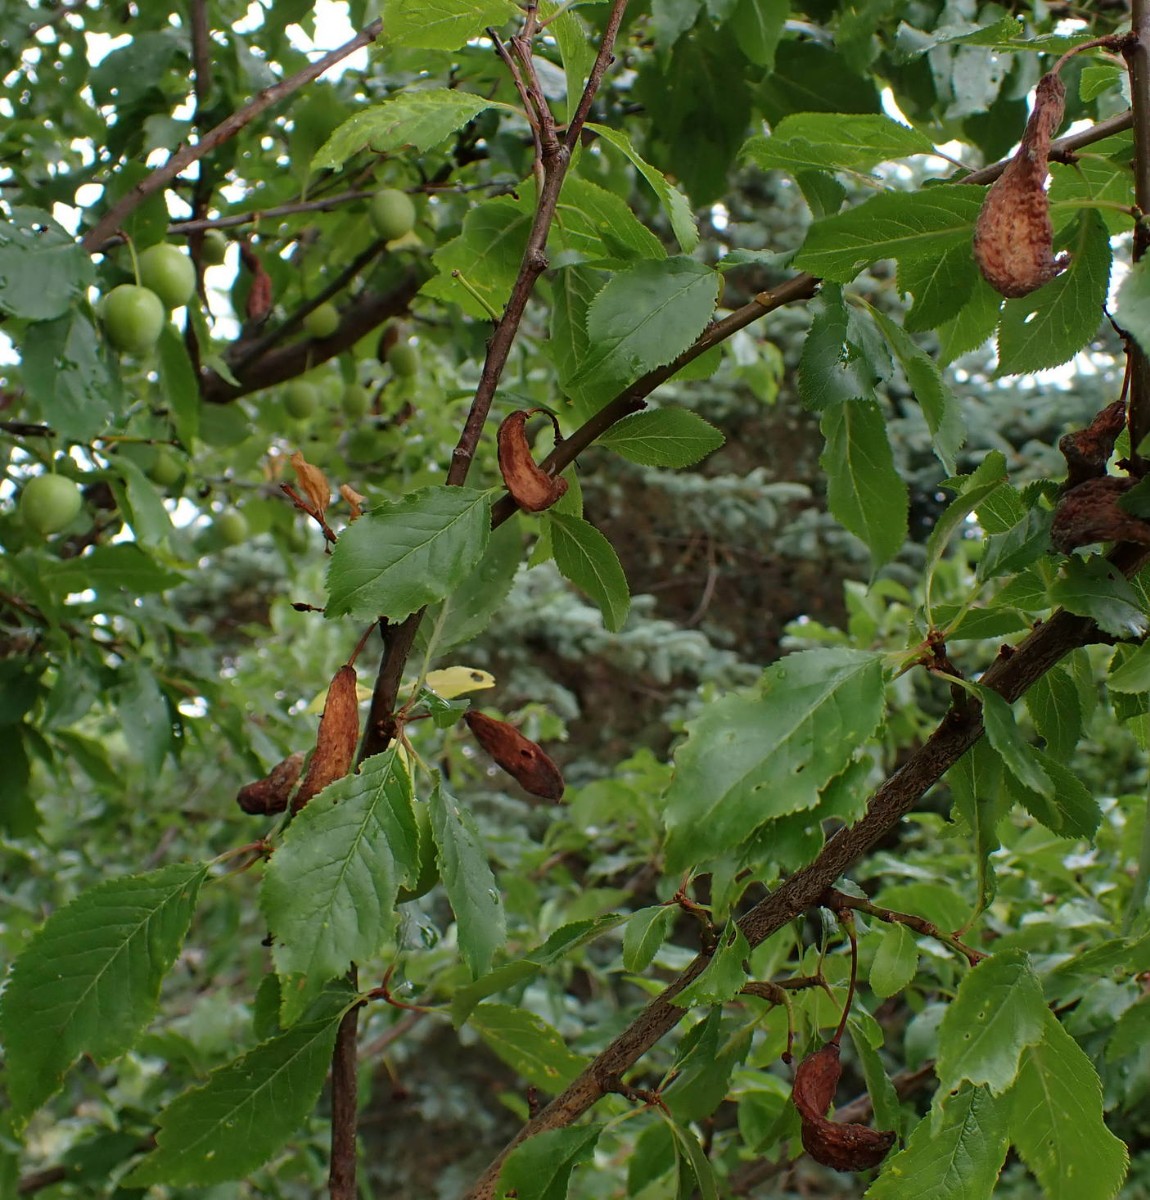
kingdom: Fungi
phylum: Ascomycota
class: Taphrinomycetes
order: Taphrinales
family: Taphrinaceae
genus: Taphrina
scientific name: Taphrina pruni
